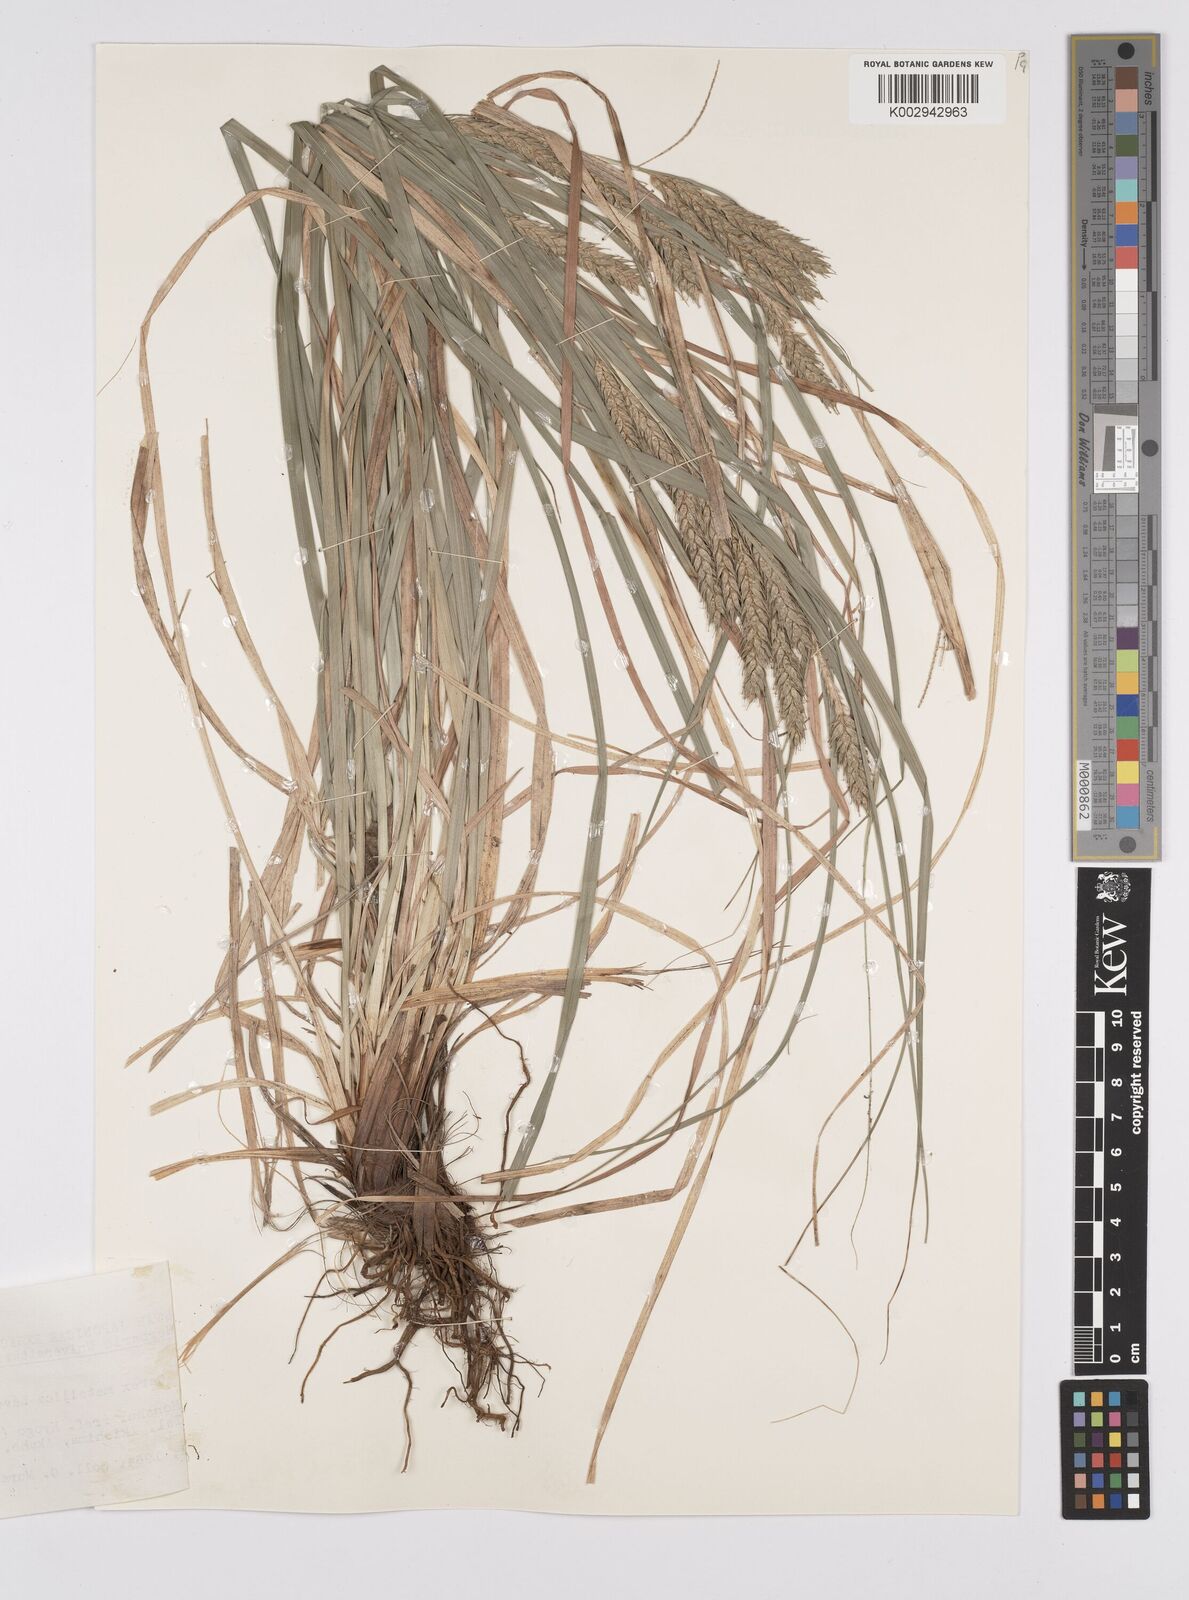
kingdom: Plantae
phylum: Tracheophyta
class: Liliopsida
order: Poales
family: Cyperaceae
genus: Carex
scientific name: Carex metallica
